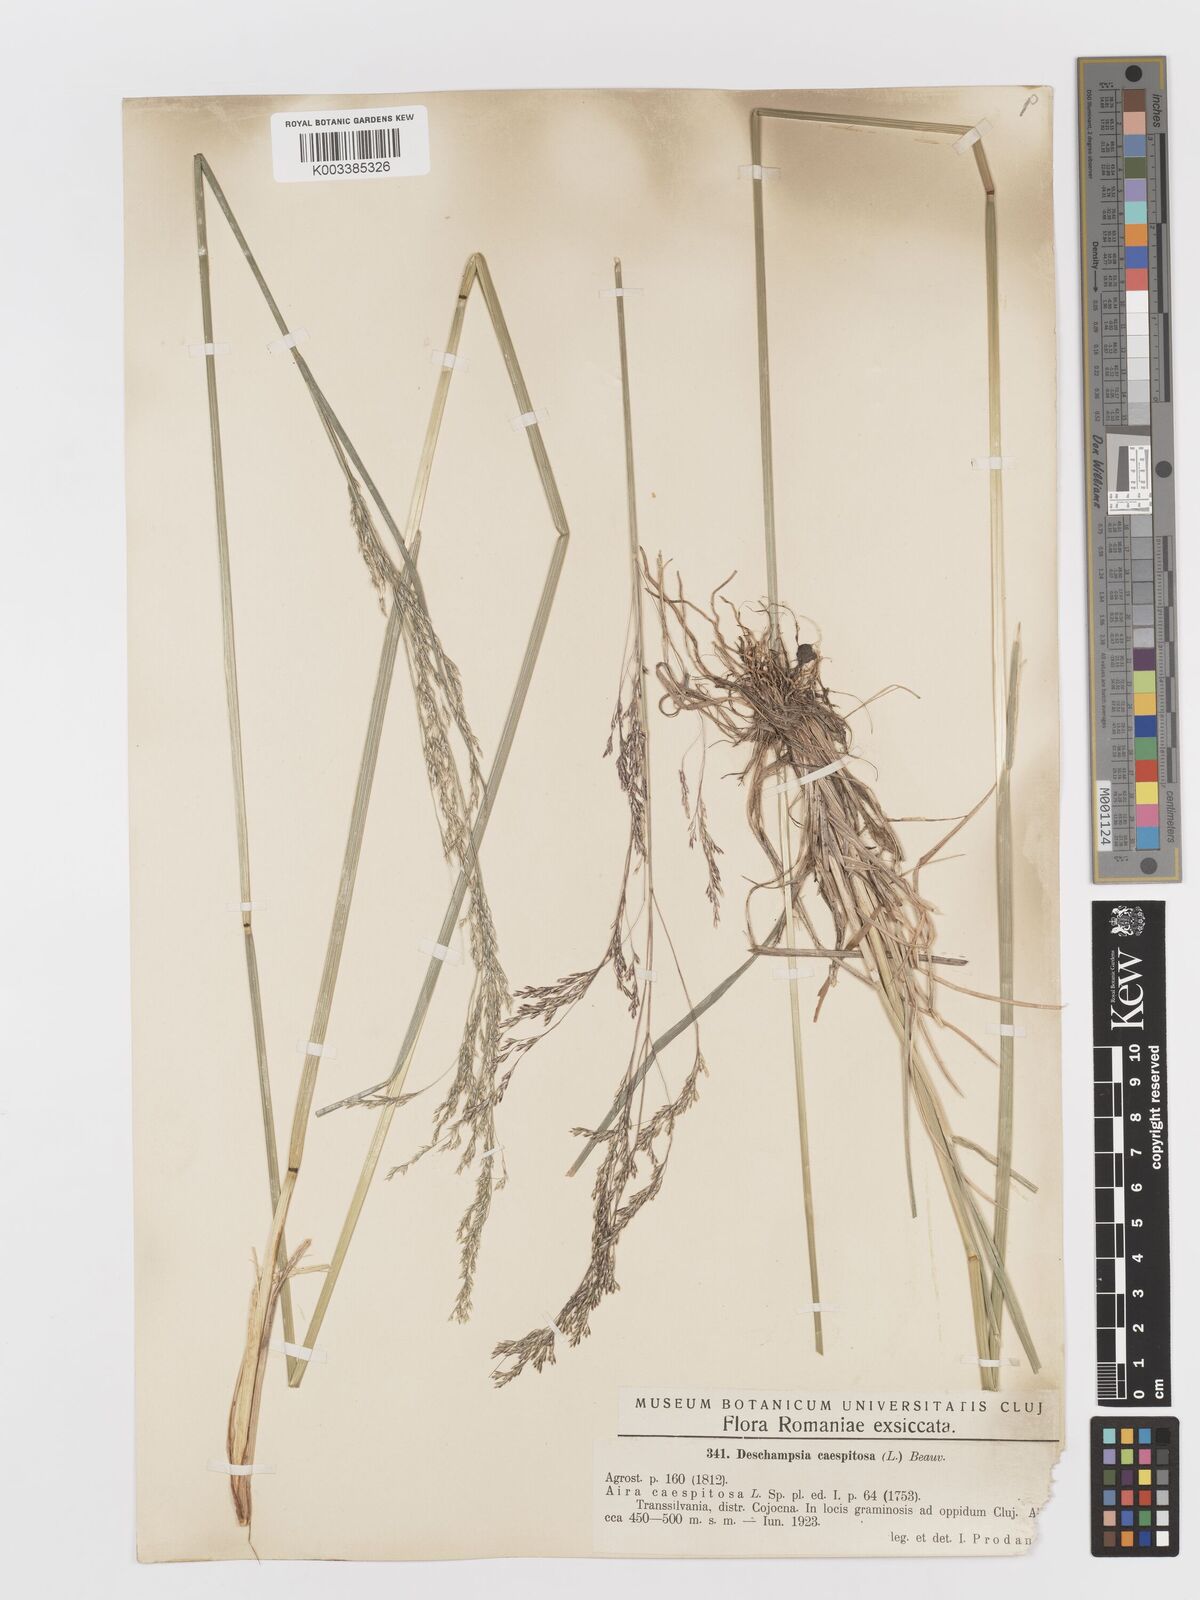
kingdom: Plantae
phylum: Tracheophyta
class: Liliopsida
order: Poales
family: Poaceae
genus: Deschampsia
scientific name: Deschampsia cespitosa
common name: Tufted hair-grass
